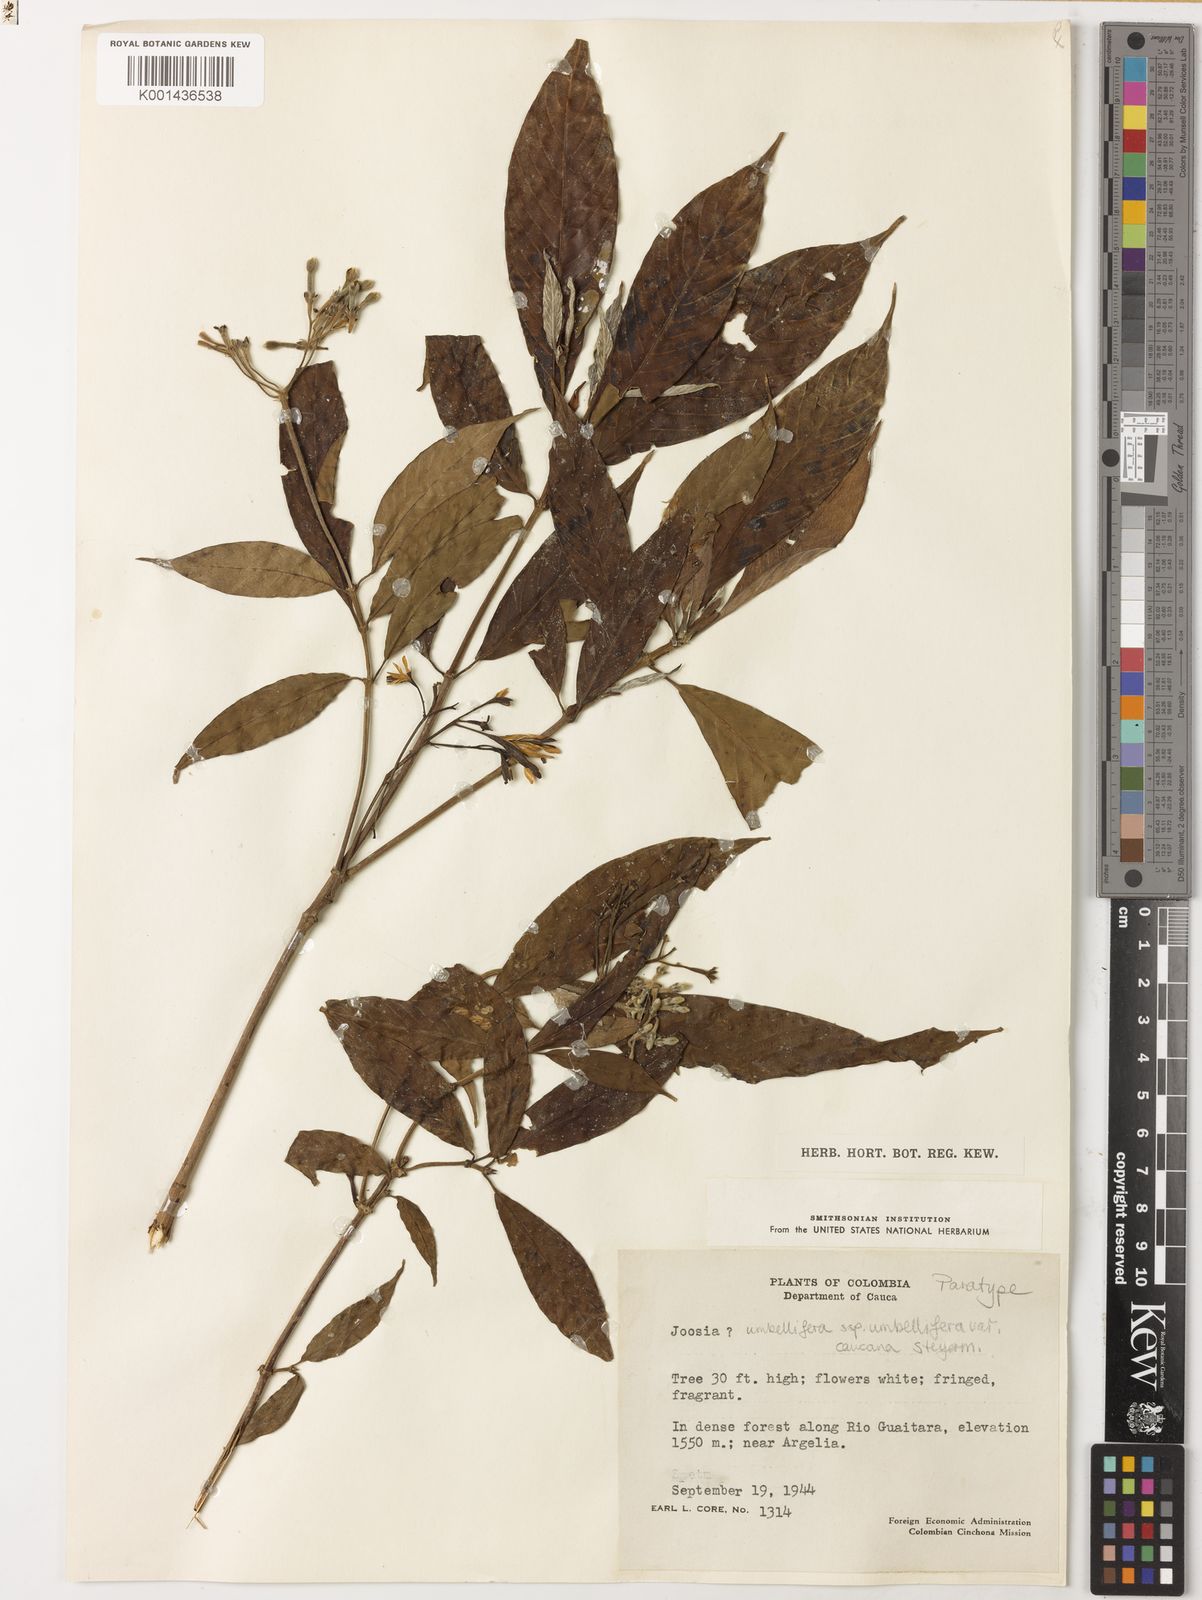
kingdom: Plantae
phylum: Tracheophyta
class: Magnoliopsida
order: Gentianales
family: Rubiaceae
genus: Joosia
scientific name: Joosia panamensis
